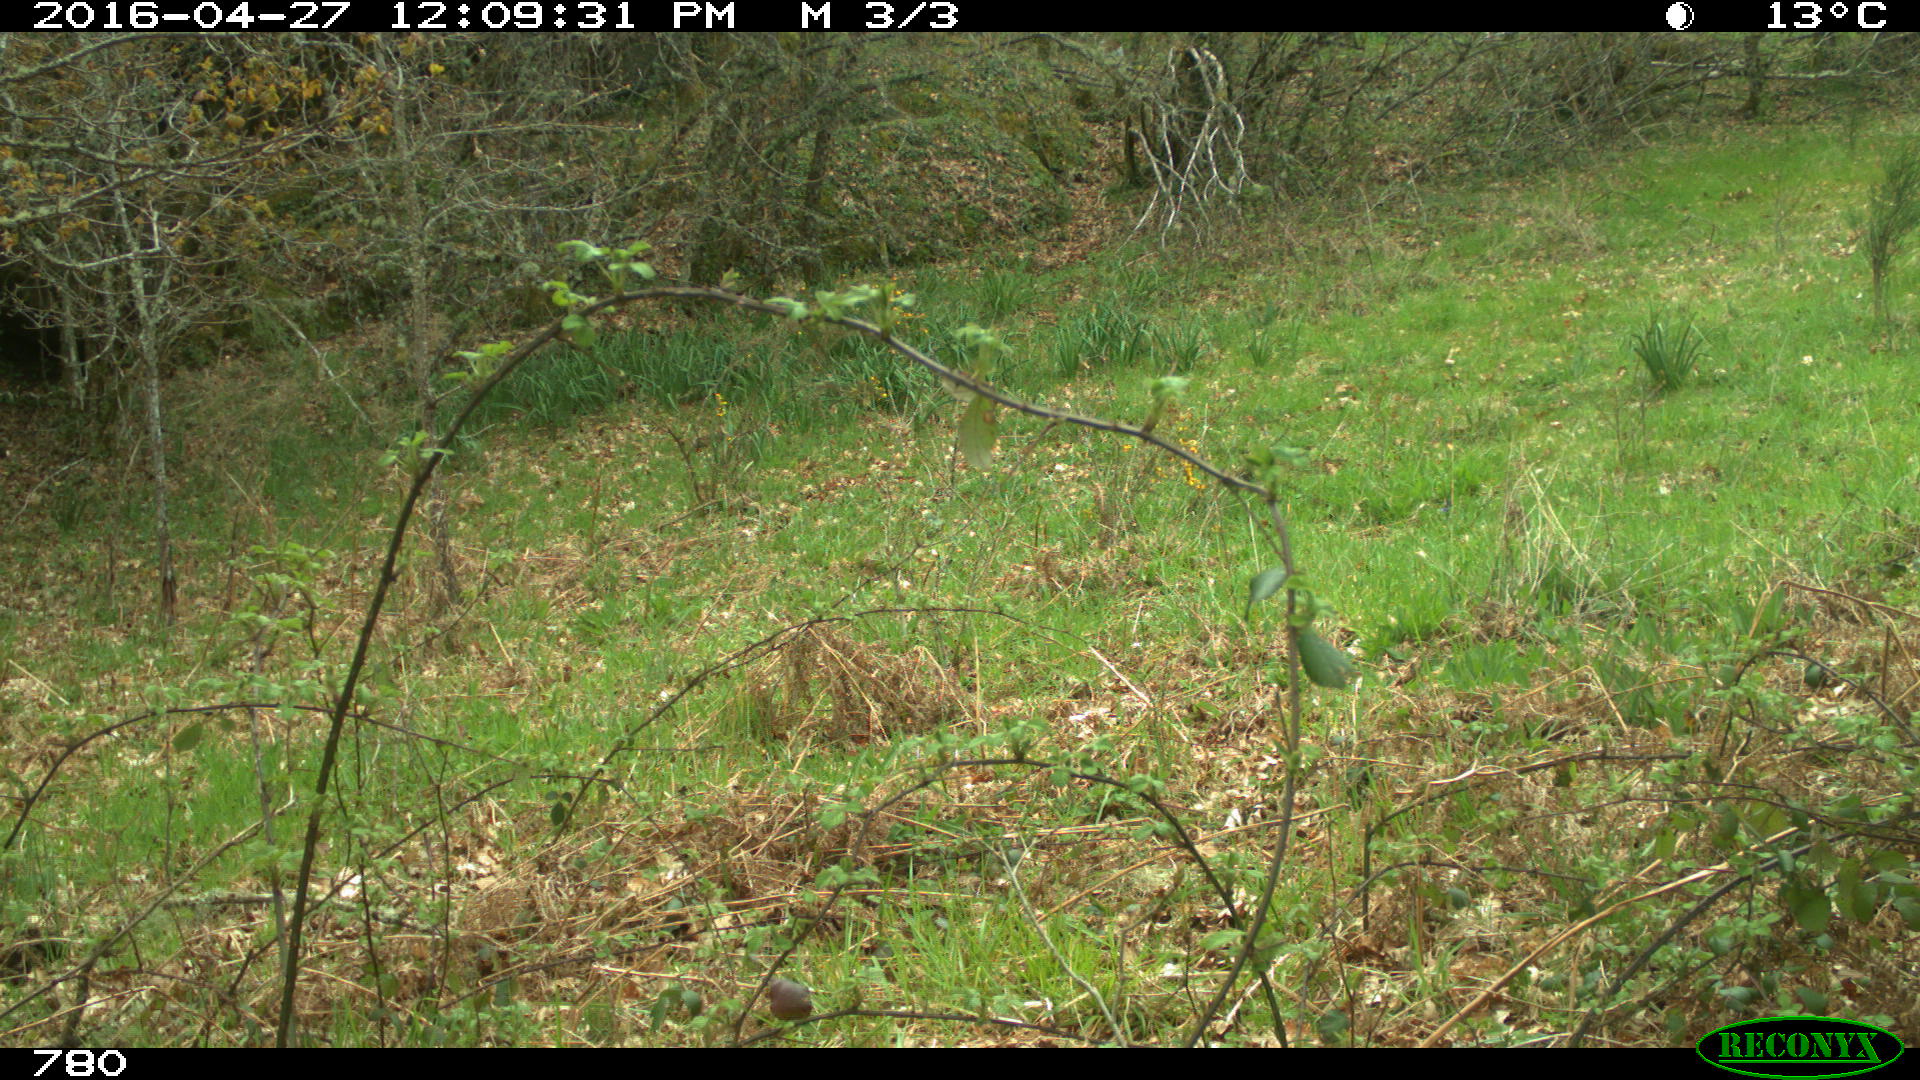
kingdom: Animalia
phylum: Chordata
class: Mammalia
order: Artiodactyla
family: Bovidae
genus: Bos
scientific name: Bos taurus
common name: Domesticated cattle
